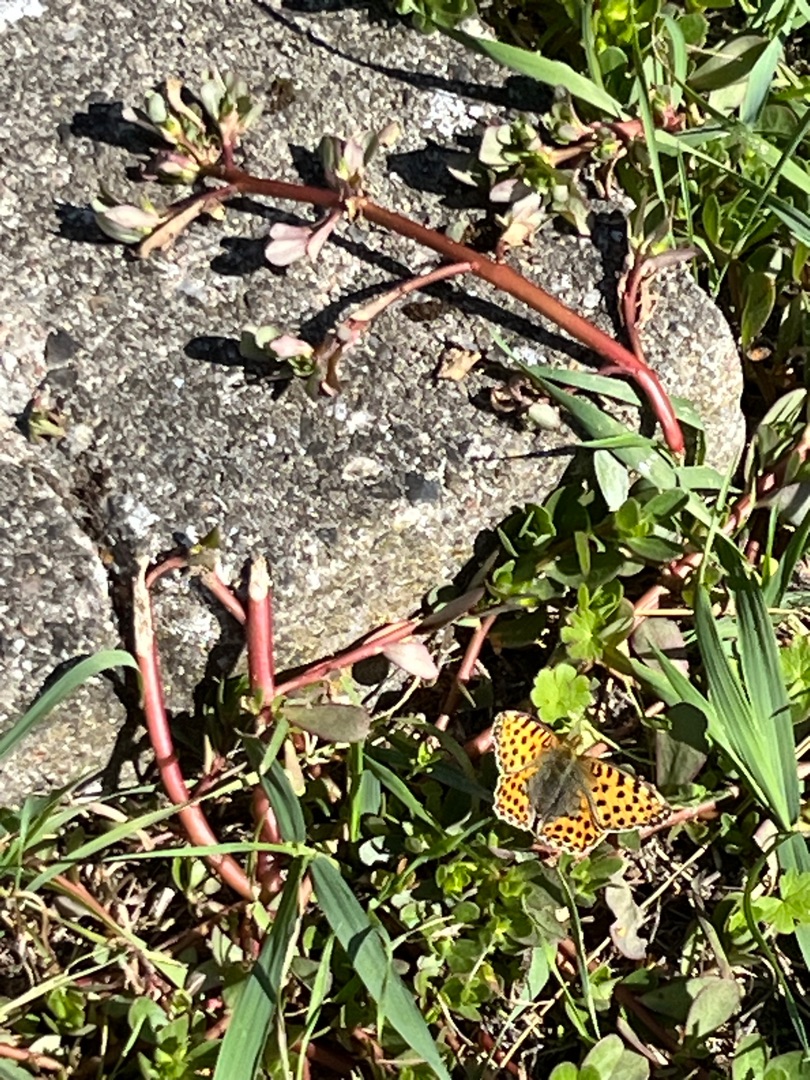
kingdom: Animalia
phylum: Arthropoda
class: Insecta
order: Lepidoptera
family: Nymphalidae
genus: Issoria
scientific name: Issoria lathonia
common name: Storplettet perlemorsommerfugl
